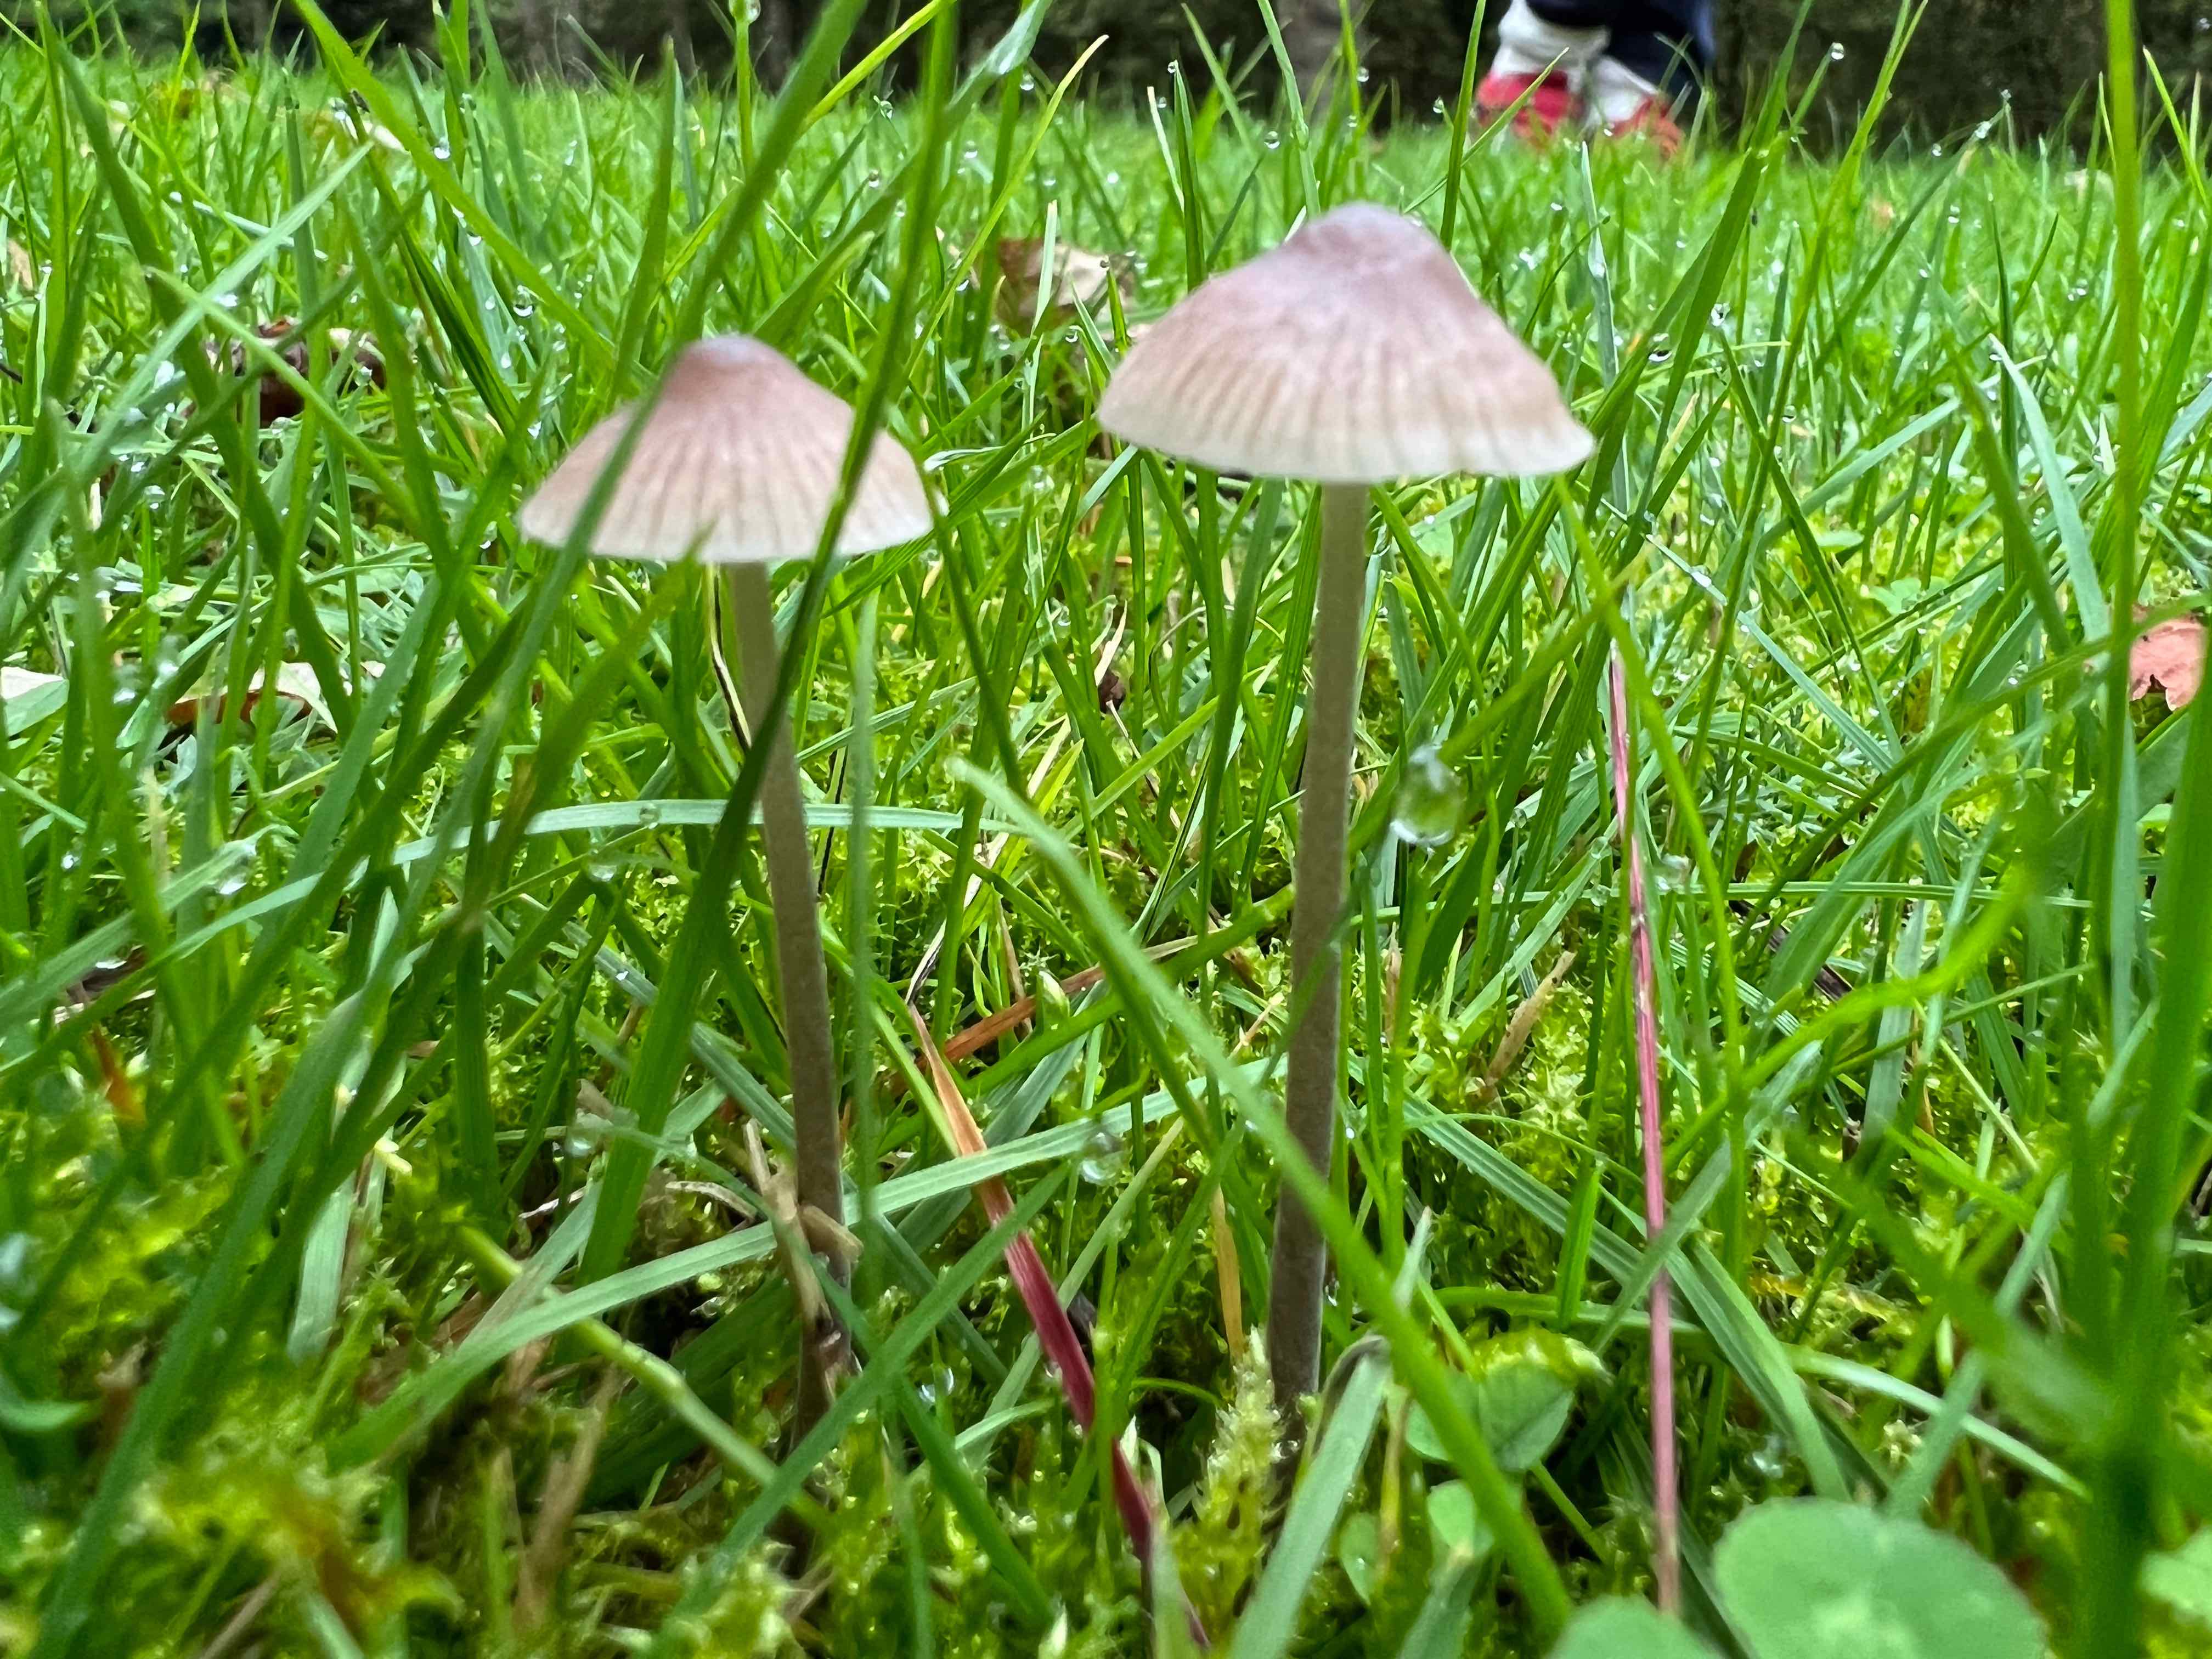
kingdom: Fungi
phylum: Basidiomycota
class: Agaricomycetes
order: Agaricales
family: Mycenaceae
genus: Mycena
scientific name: Mycena
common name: huesvamp
